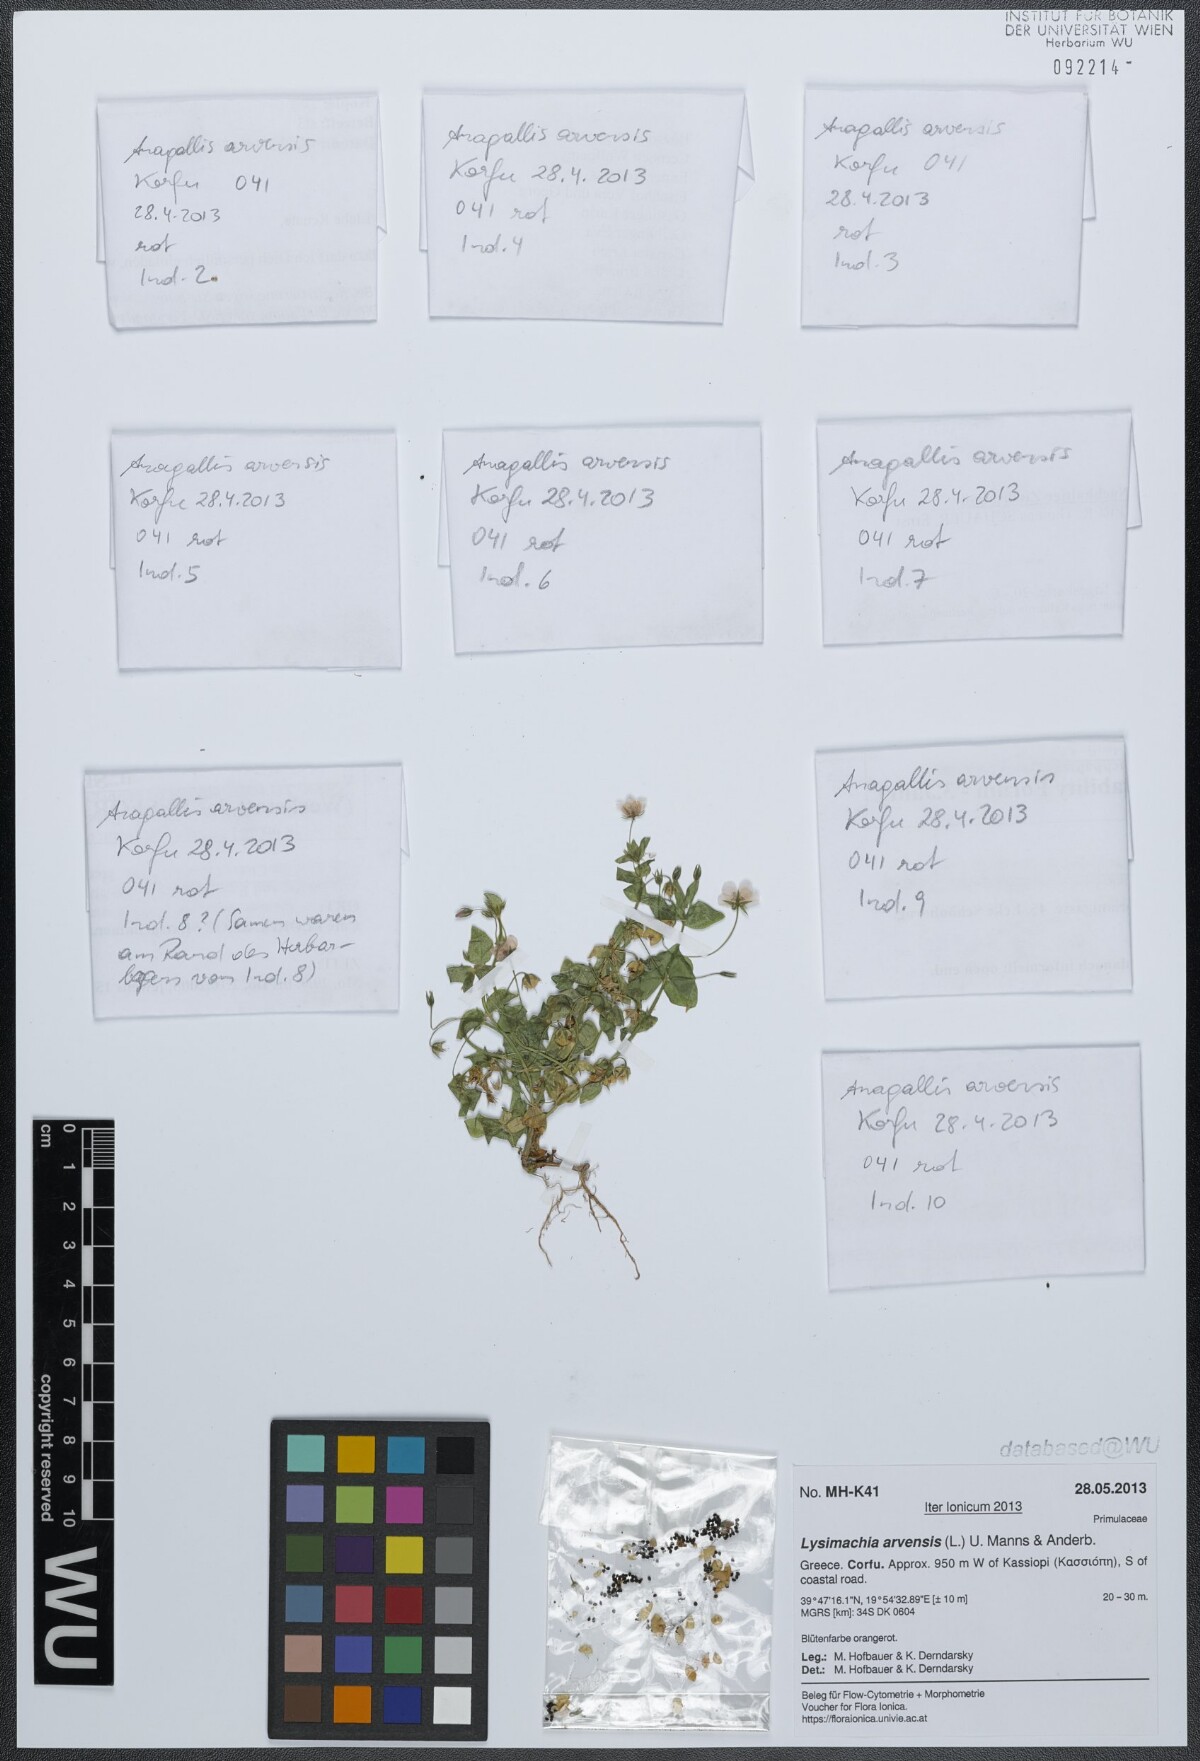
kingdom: Plantae
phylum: Tracheophyta
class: Magnoliopsida
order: Ericales
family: Primulaceae
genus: Lysimachia
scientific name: Lysimachia arvensis
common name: Scarlet pimpernel
